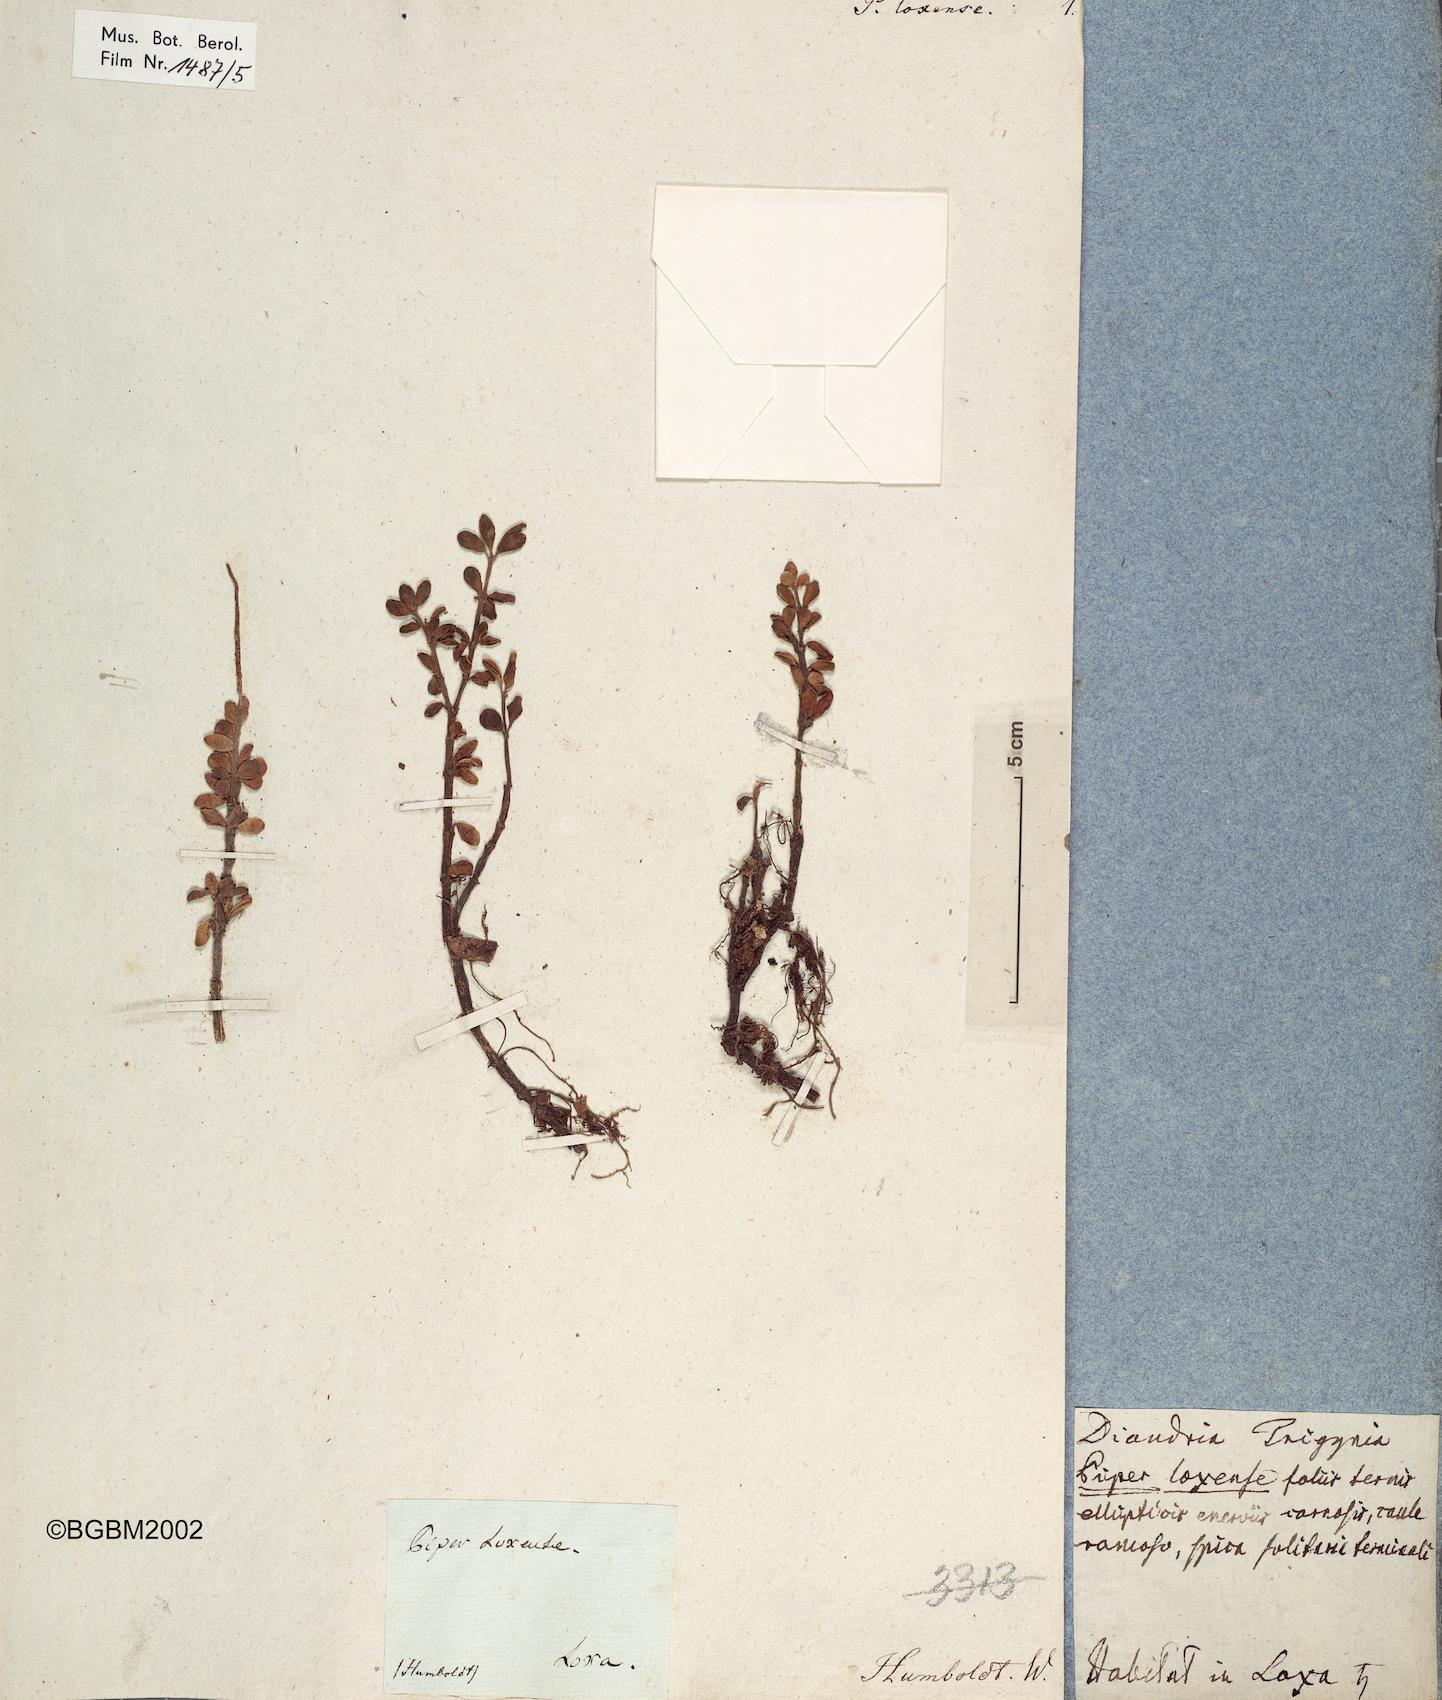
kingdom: Plantae
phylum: Tracheophyta
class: Magnoliopsida
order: Piperales
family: Piperaceae
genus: Peperomia
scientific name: Peperomia loxensis
